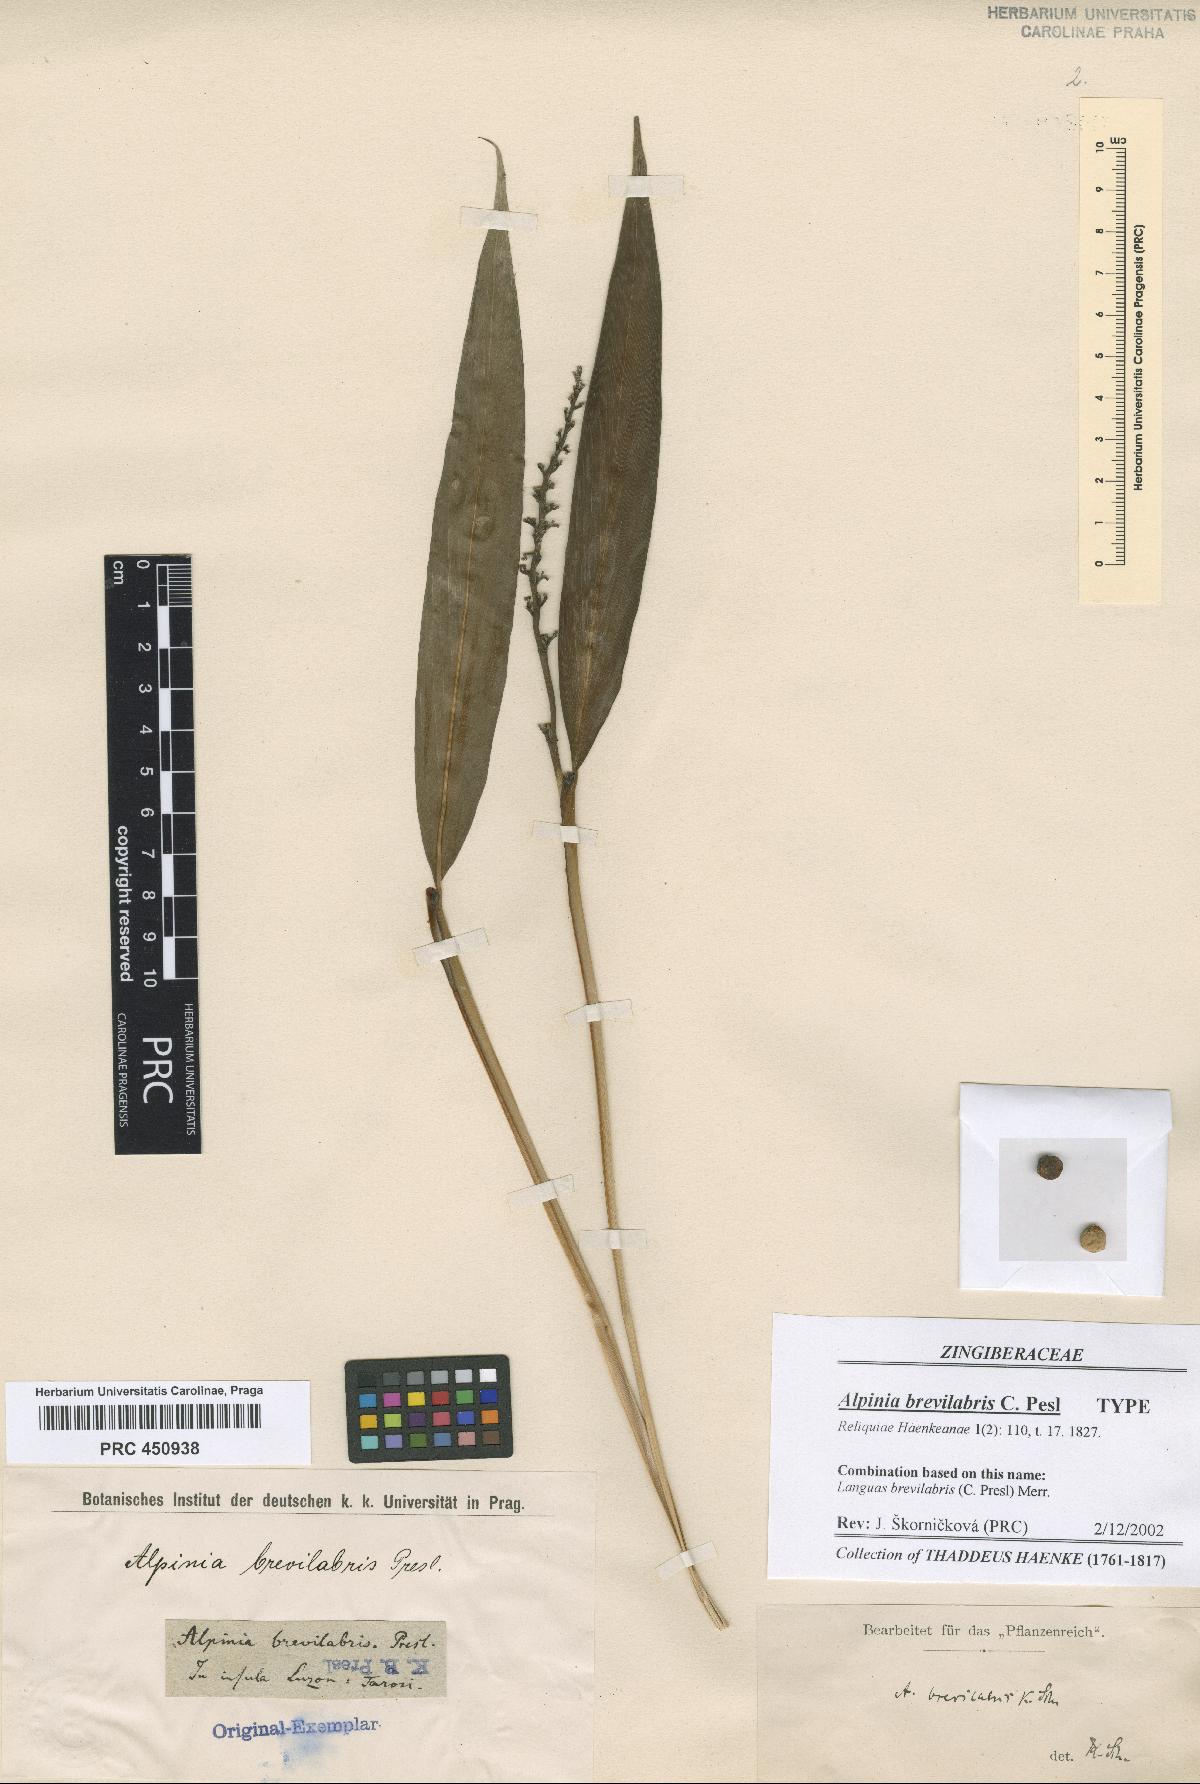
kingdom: Plantae
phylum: Tracheophyta
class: Liliopsida
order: Zingiberales
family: Zingiberaceae
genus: Alpinia
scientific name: Alpinia brevilabris
